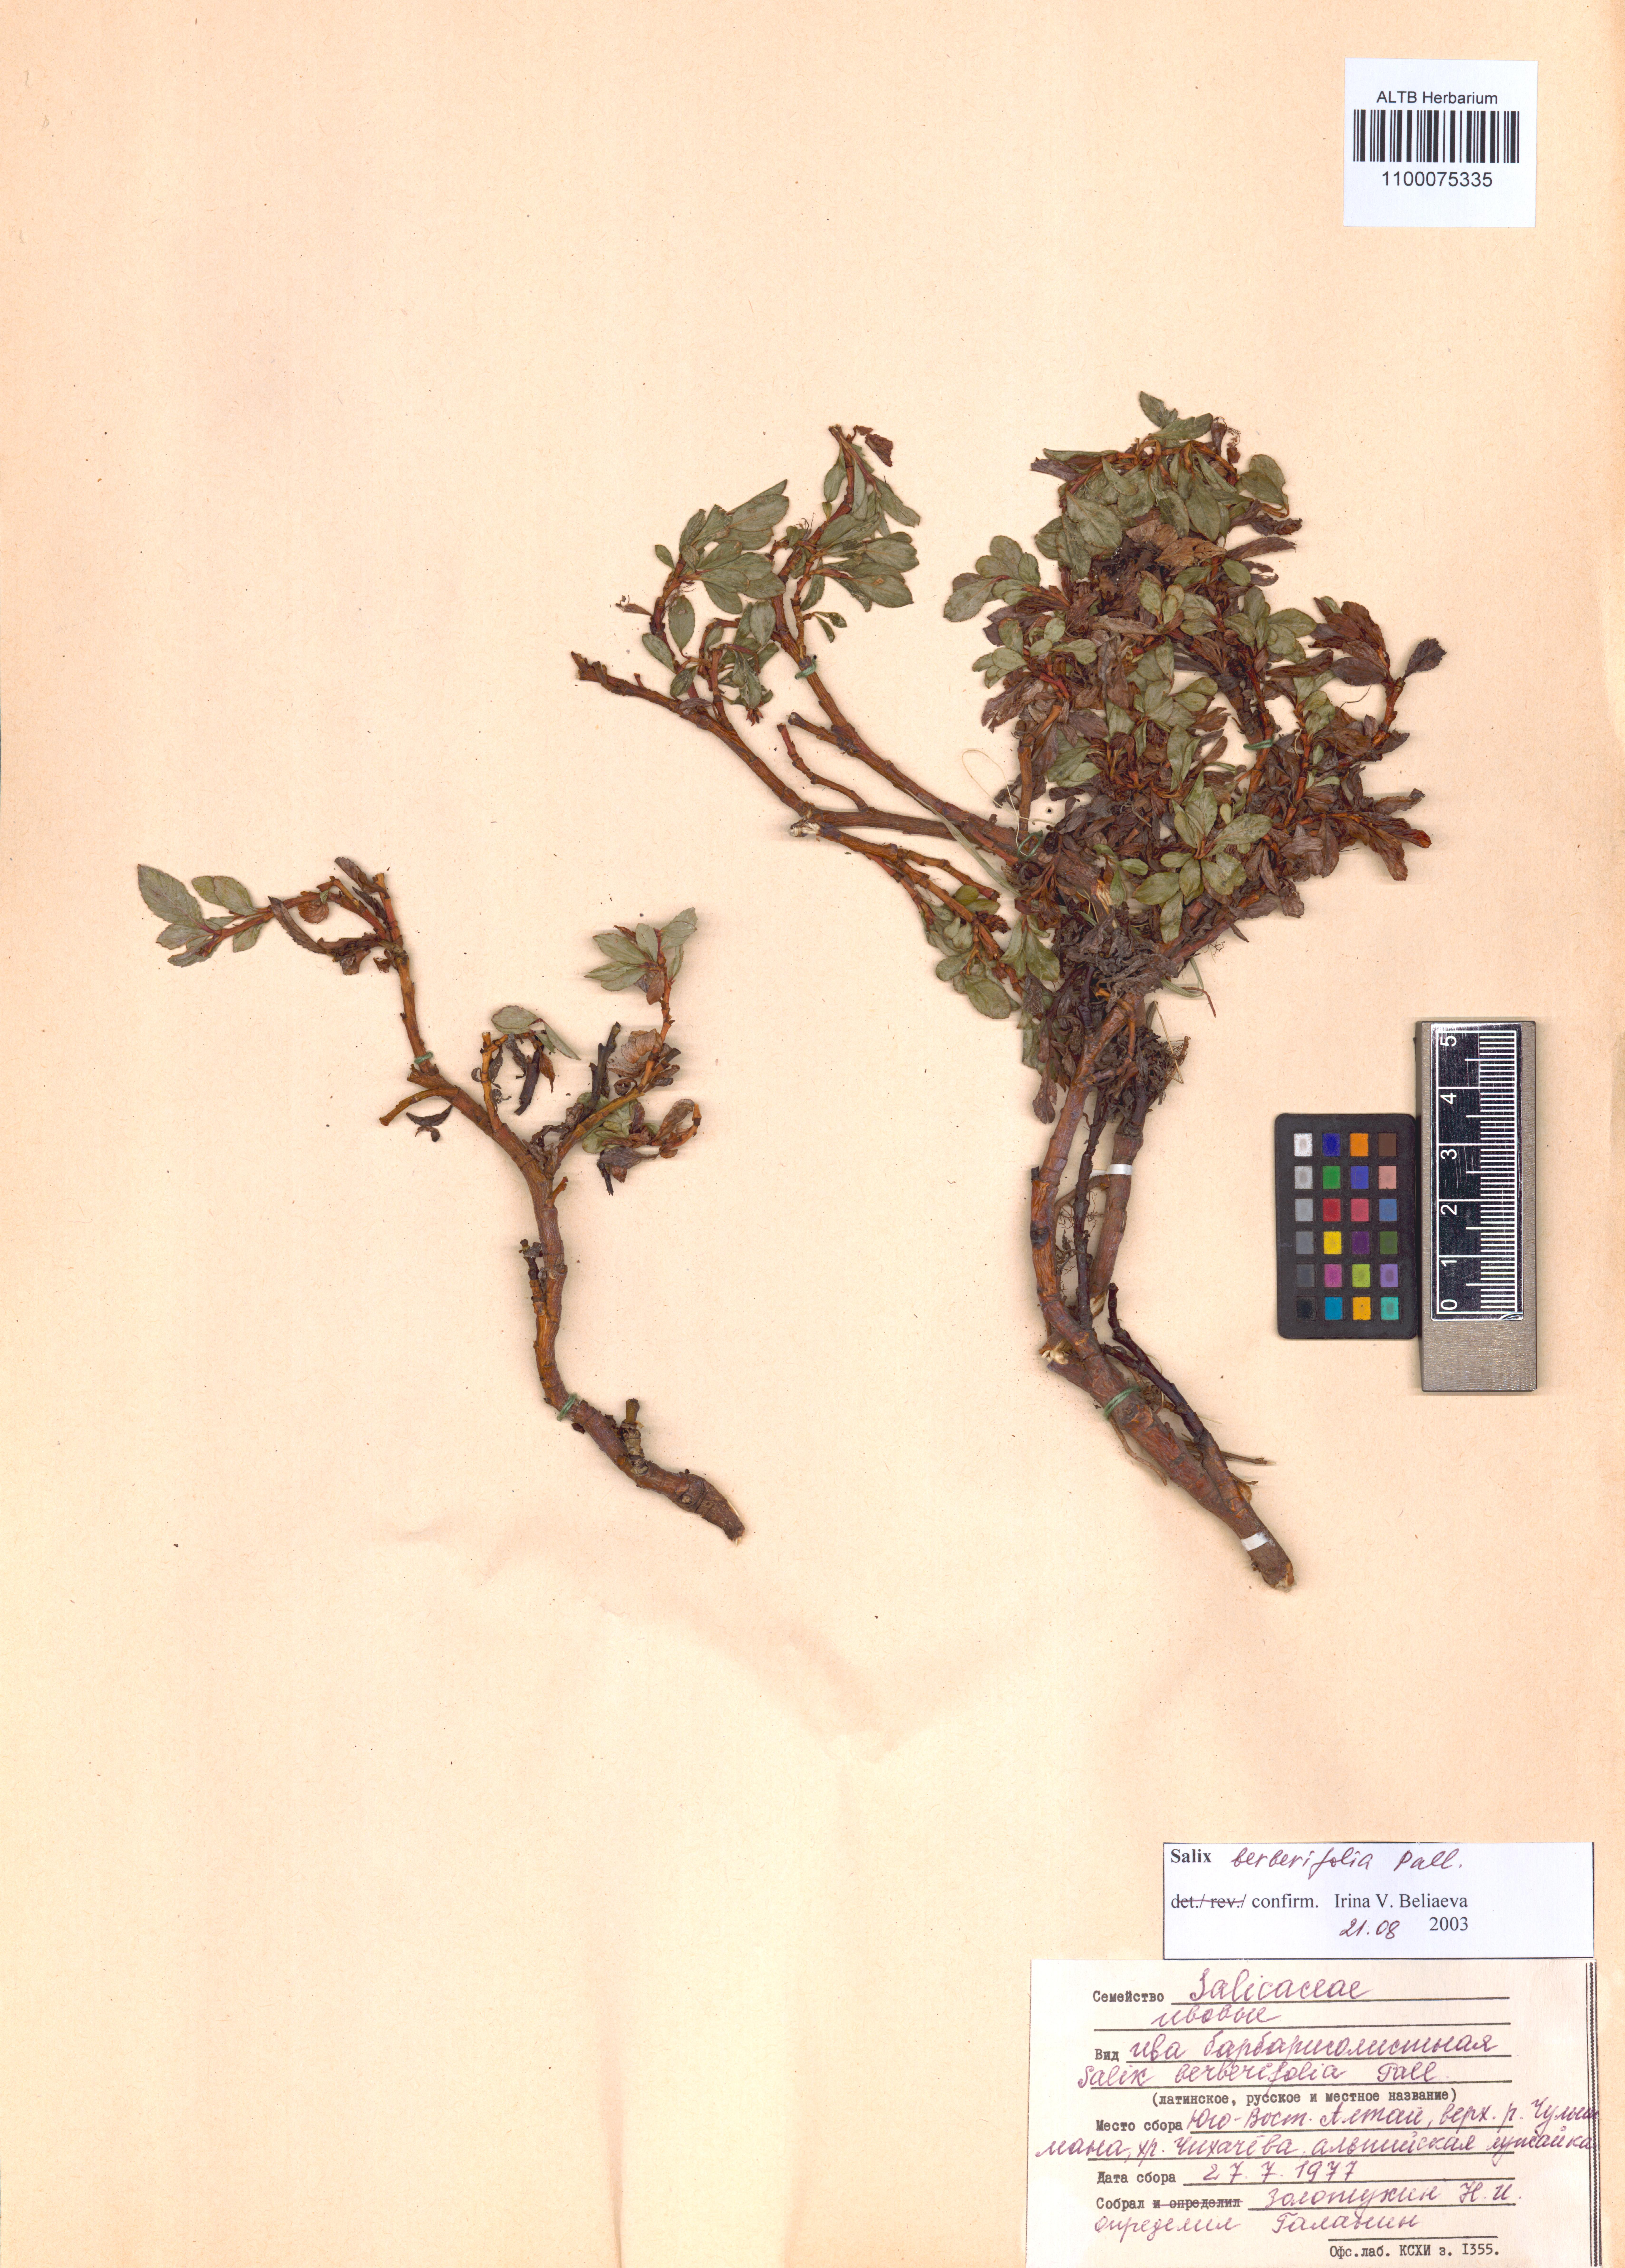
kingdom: Plantae
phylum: Tracheophyta
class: Magnoliopsida
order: Malpighiales
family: Salicaceae
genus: Salix
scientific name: Salix berberifolia
